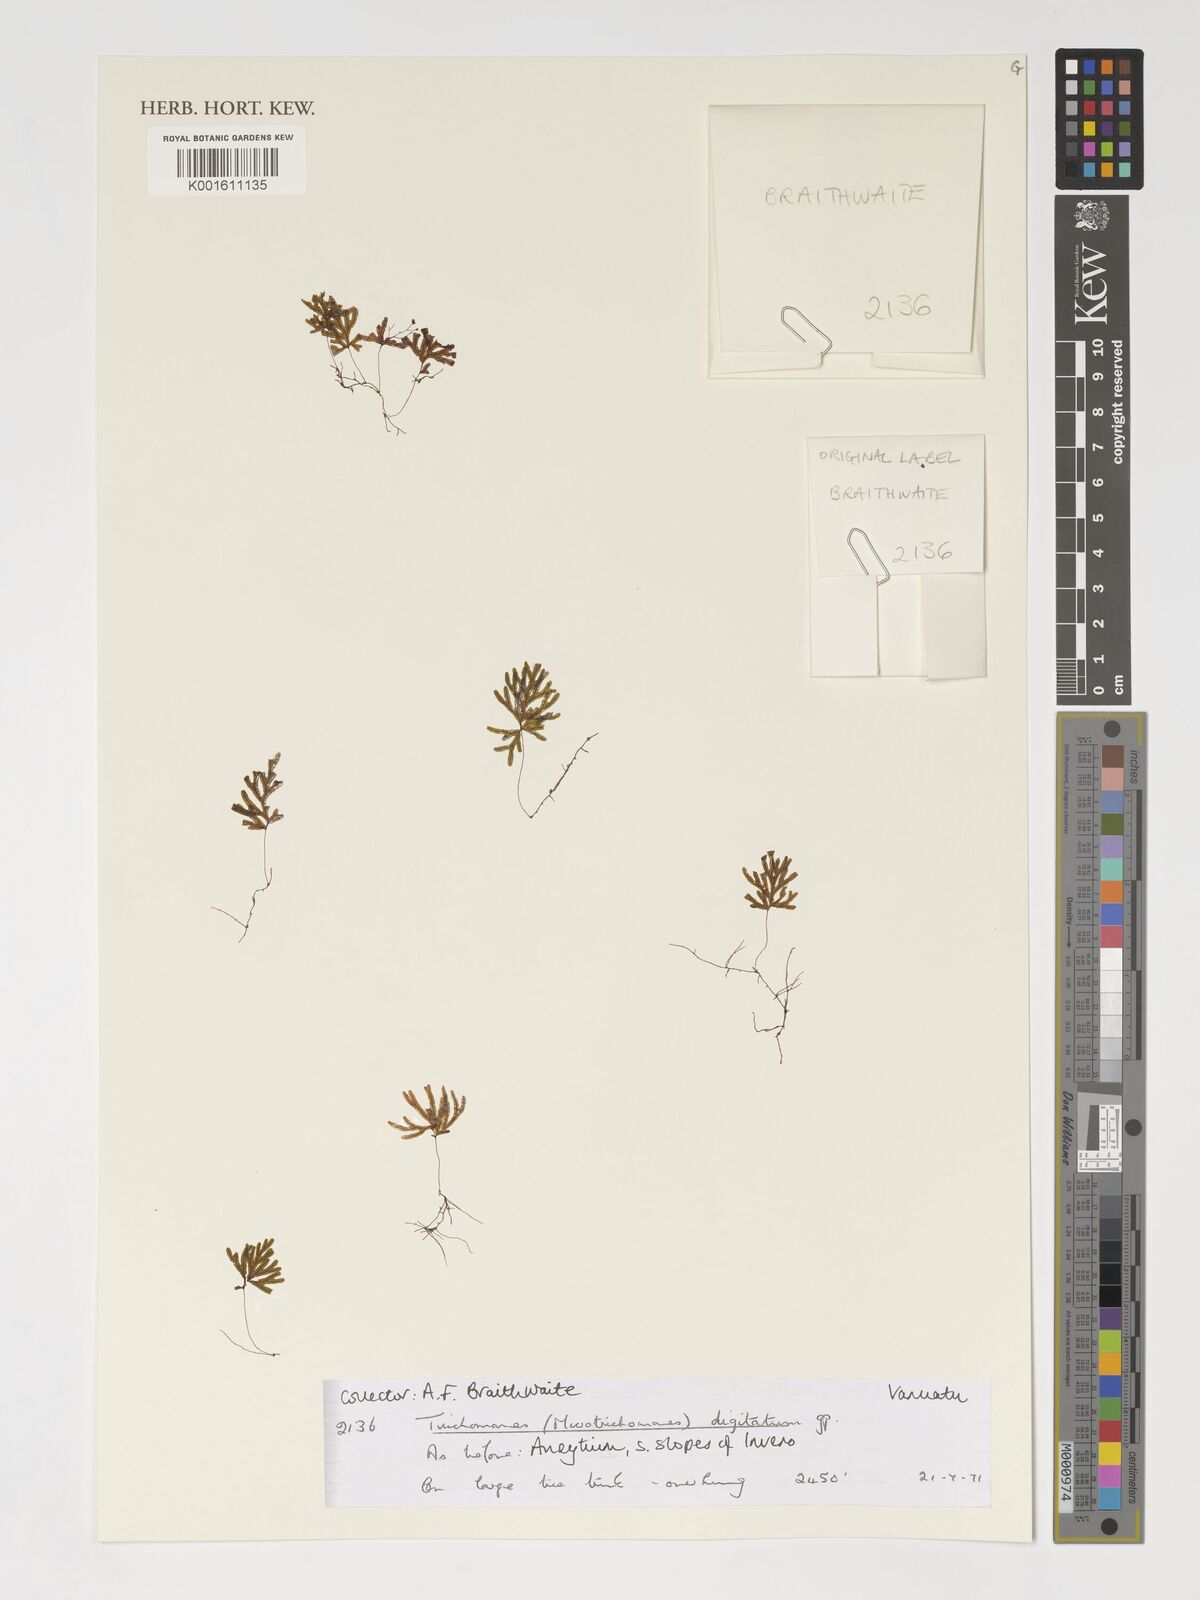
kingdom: Plantae
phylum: Tracheophyta
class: Polypodiopsida
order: Hymenophyllales
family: Hymenophyllaceae
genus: Crepidomanes
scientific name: Crepidomanes schmidianum
